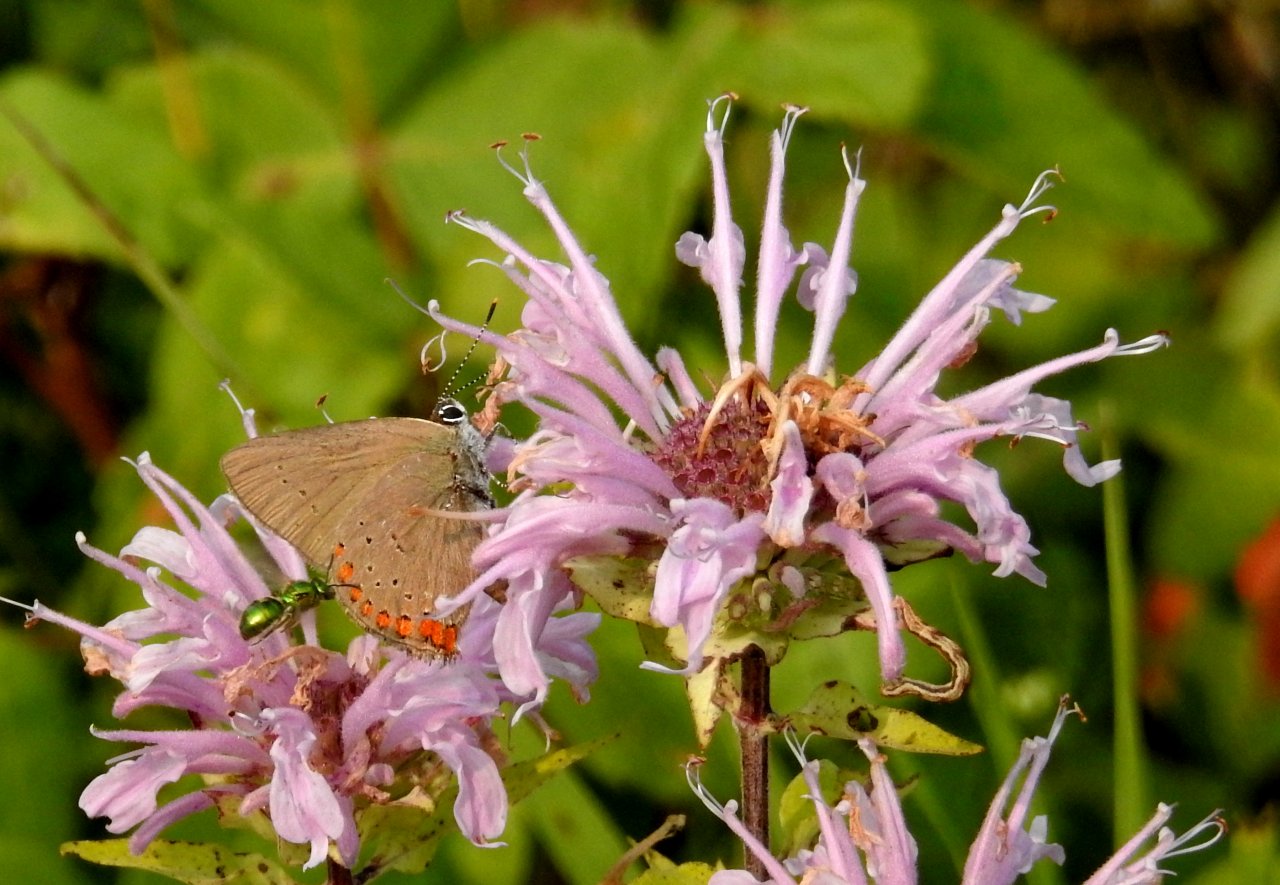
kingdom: Animalia
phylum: Arthropoda
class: Insecta
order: Lepidoptera
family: Lycaenidae
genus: Harkenclenus
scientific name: Harkenclenus titus
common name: Coral Hairstreak
